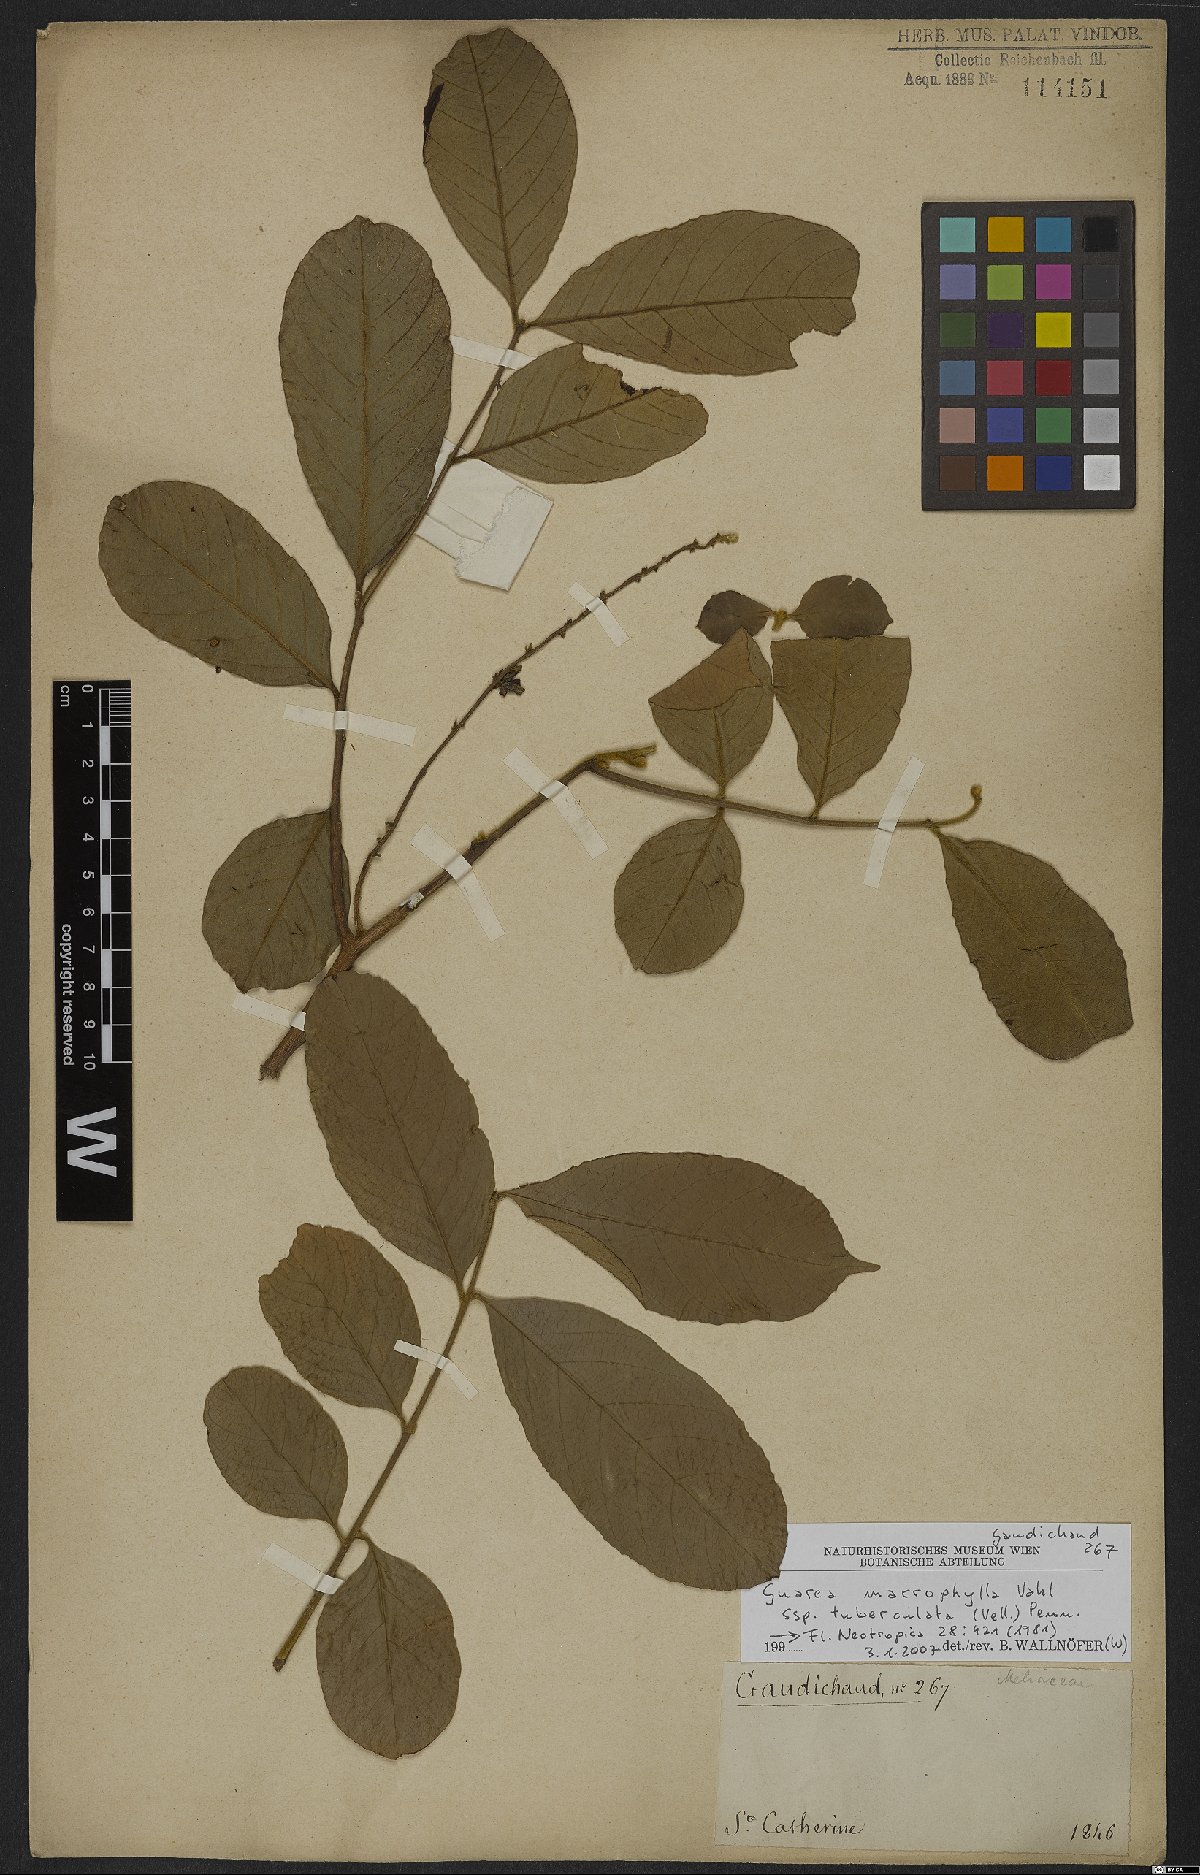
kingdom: Plantae
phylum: Tracheophyta
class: Magnoliopsida
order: Sapindales
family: Meliaceae
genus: Guarea
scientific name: Guarea macrophylla
